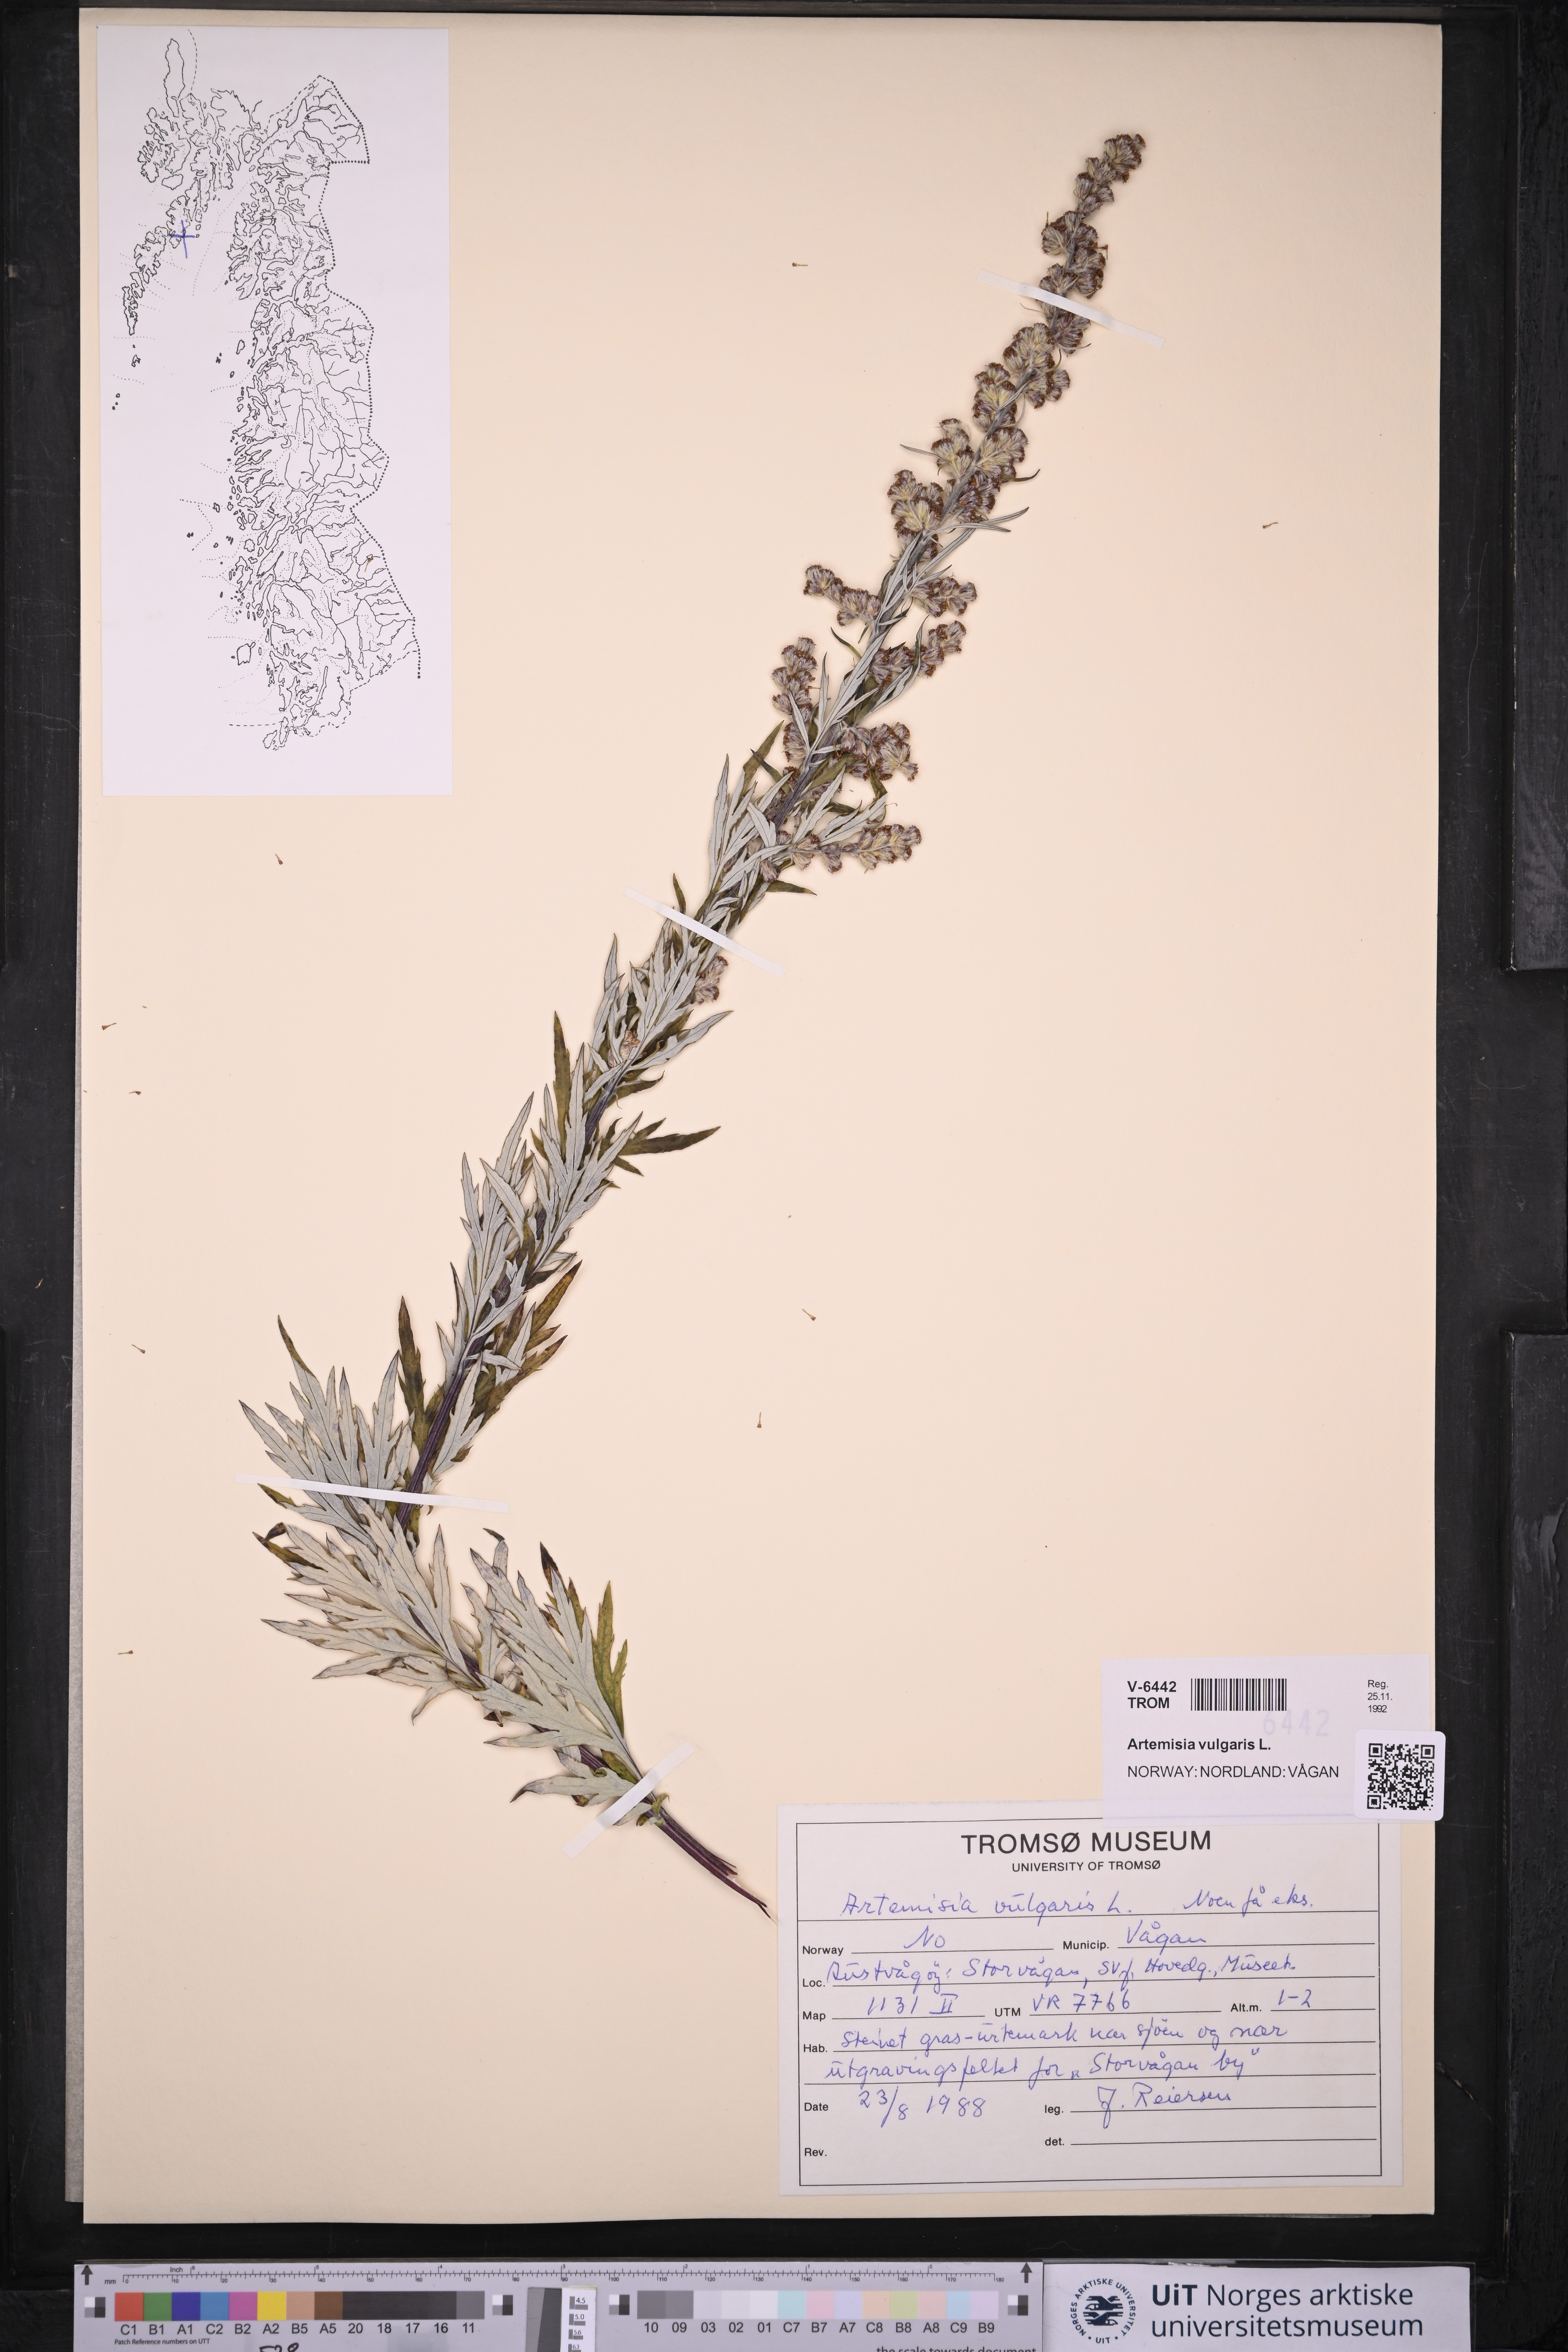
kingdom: Plantae
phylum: Tracheophyta
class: Magnoliopsida
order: Asterales
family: Asteraceae
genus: Artemisia
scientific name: Artemisia vulgaris
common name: Mugwort
